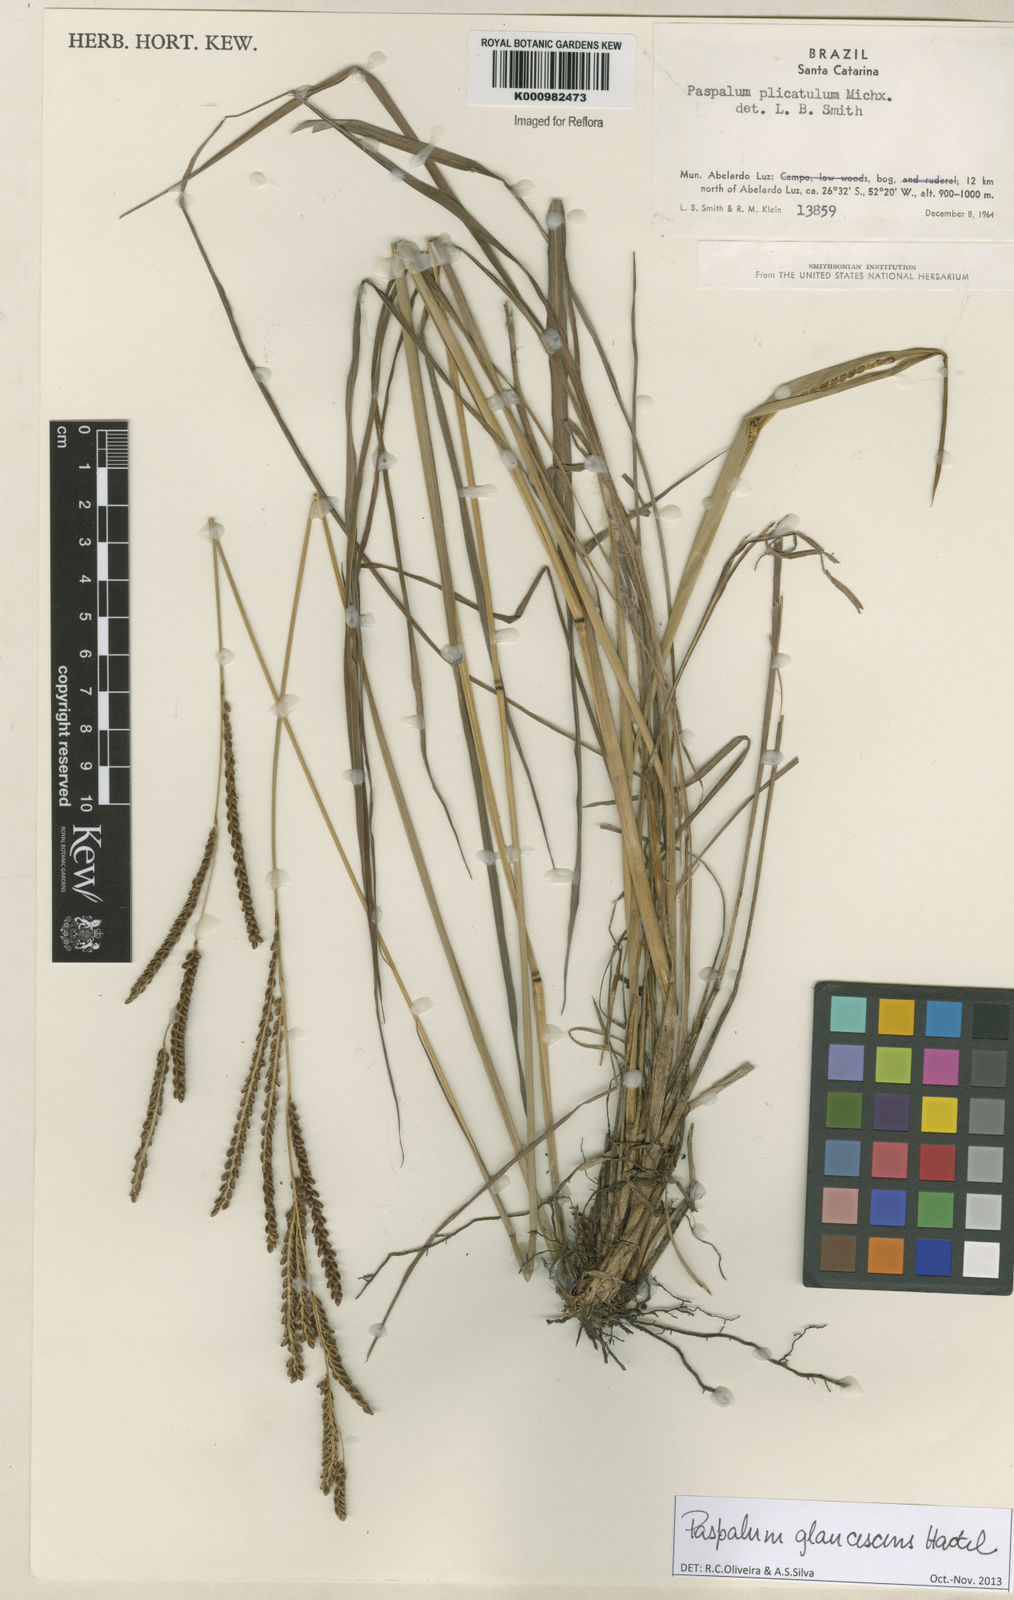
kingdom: Plantae
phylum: Tracheophyta
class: Liliopsida
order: Poales
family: Poaceae
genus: Paspalum
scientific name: Paspalum glaucescens
